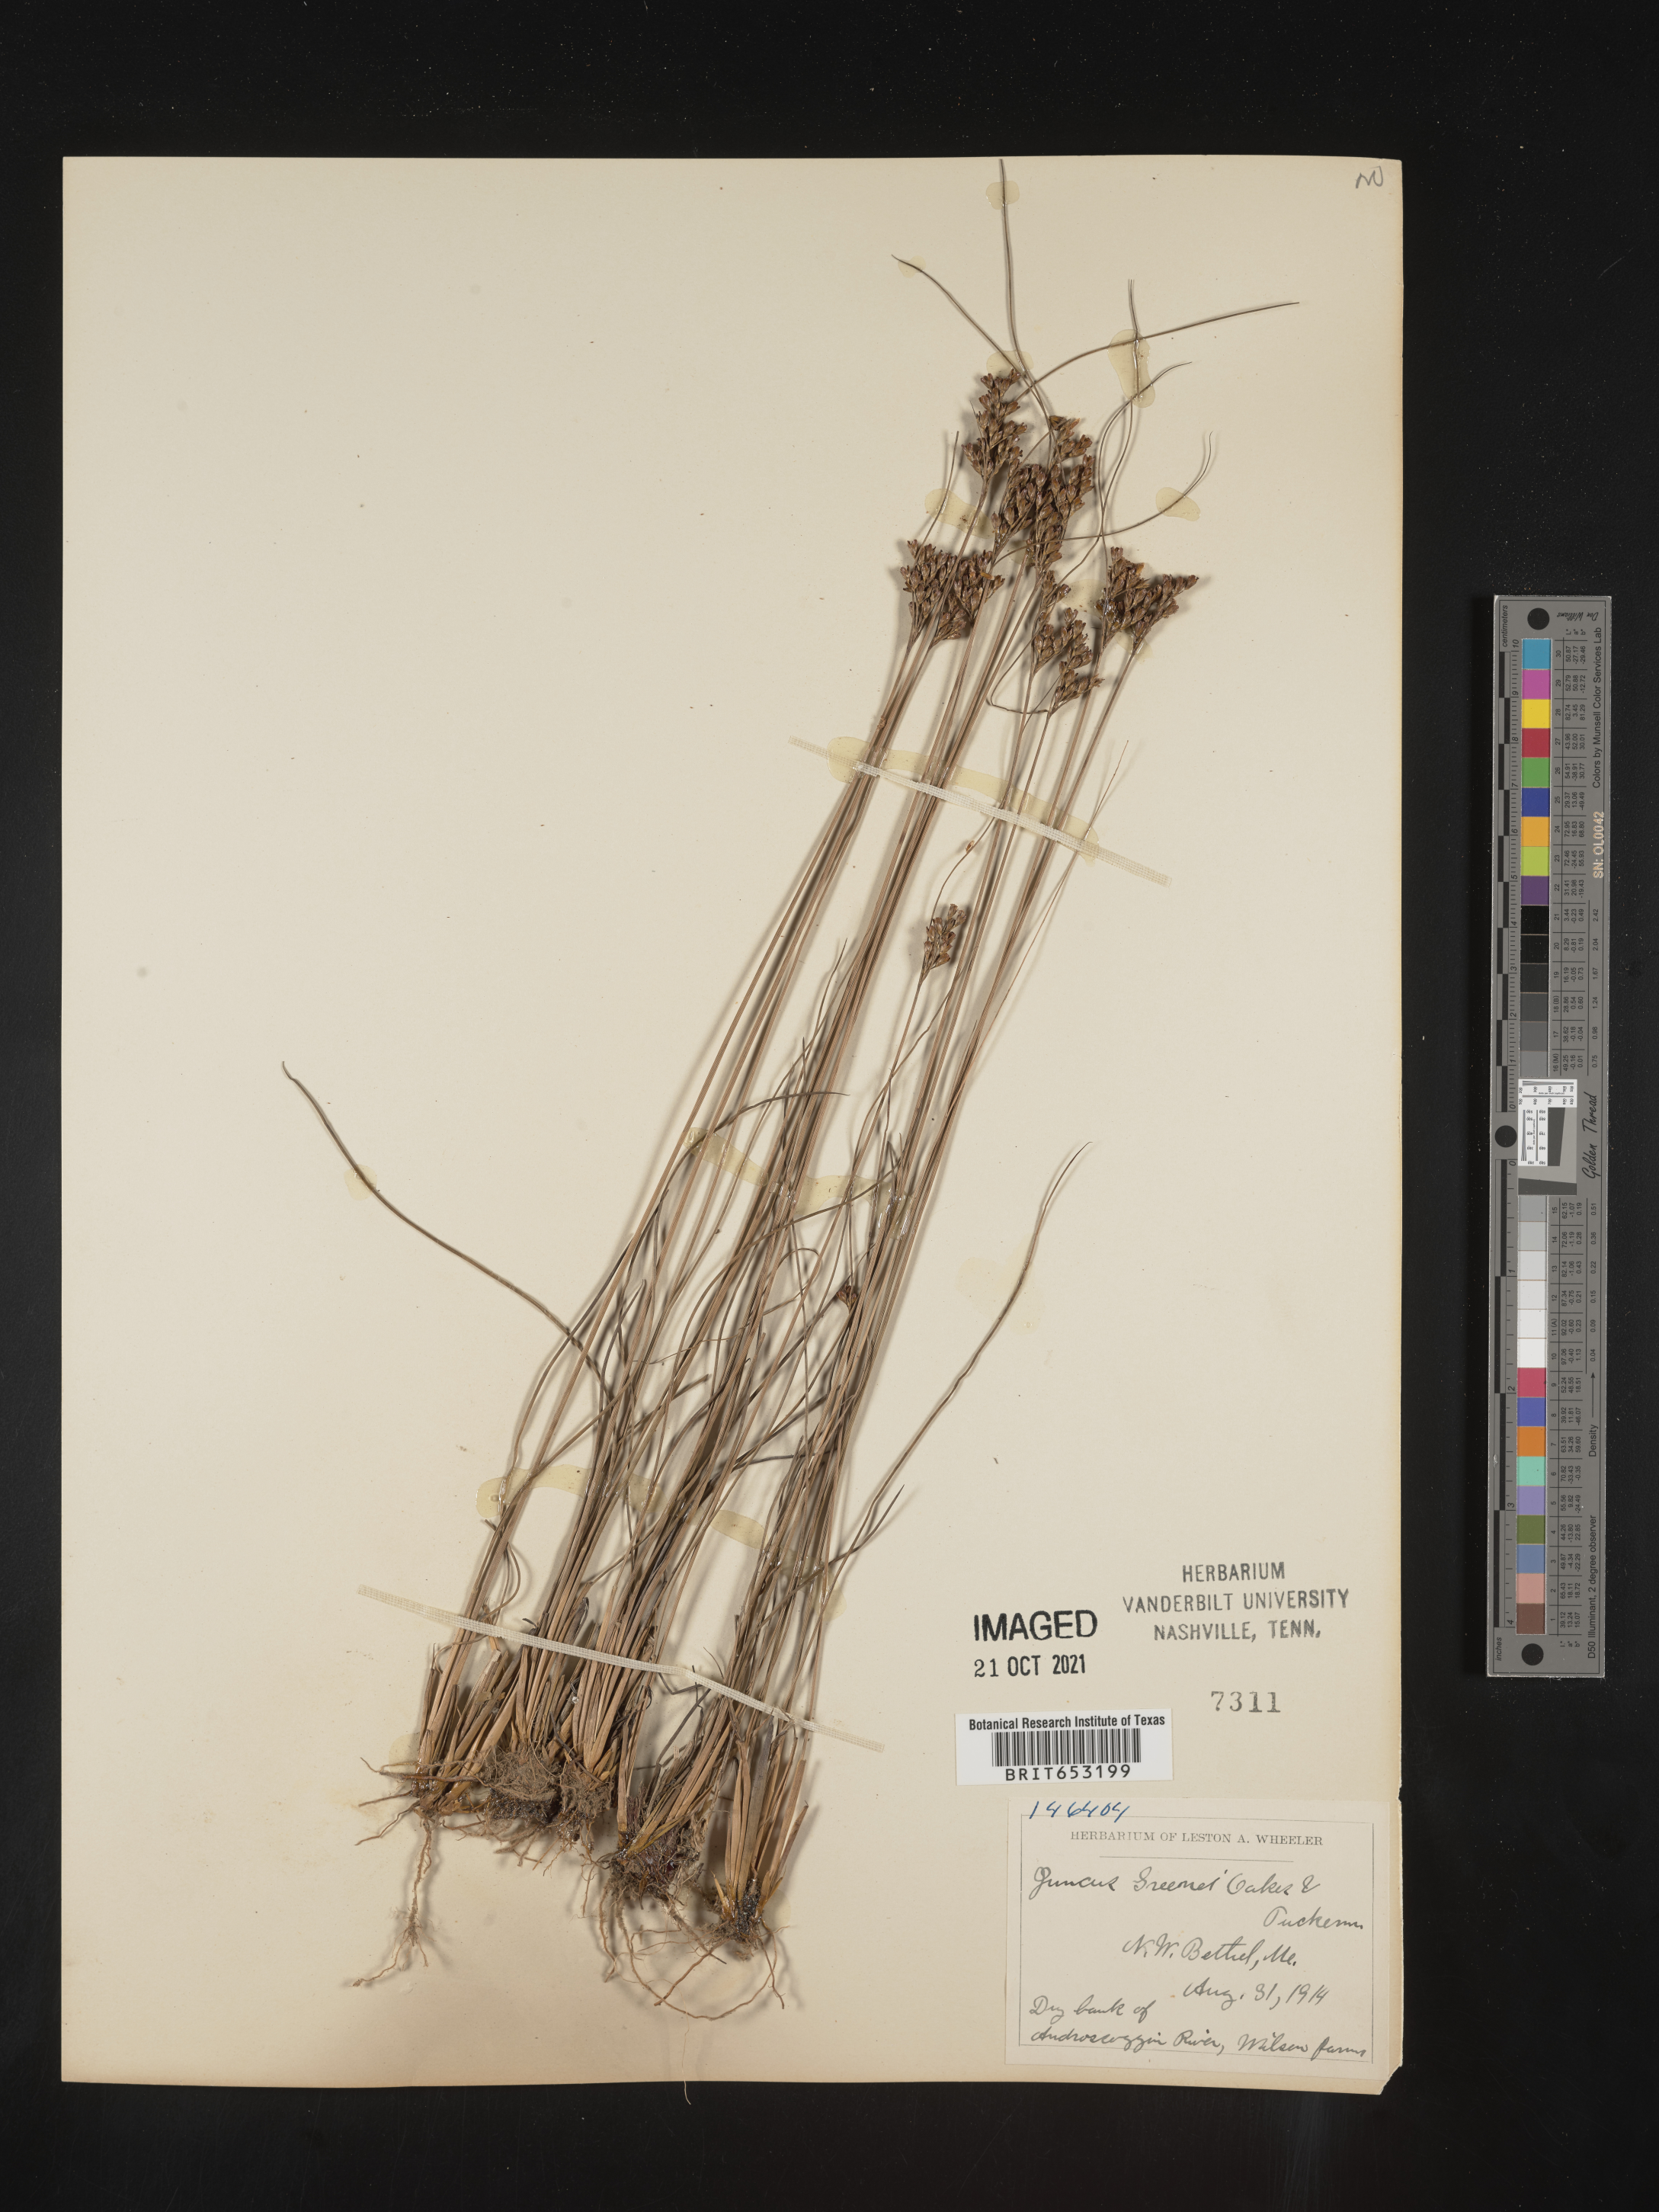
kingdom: Plantae
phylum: Tracheophyta
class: Liliopsida
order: Poales
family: Juncaceae
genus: Juncus
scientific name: Juncus greenei
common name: Greene's rush
